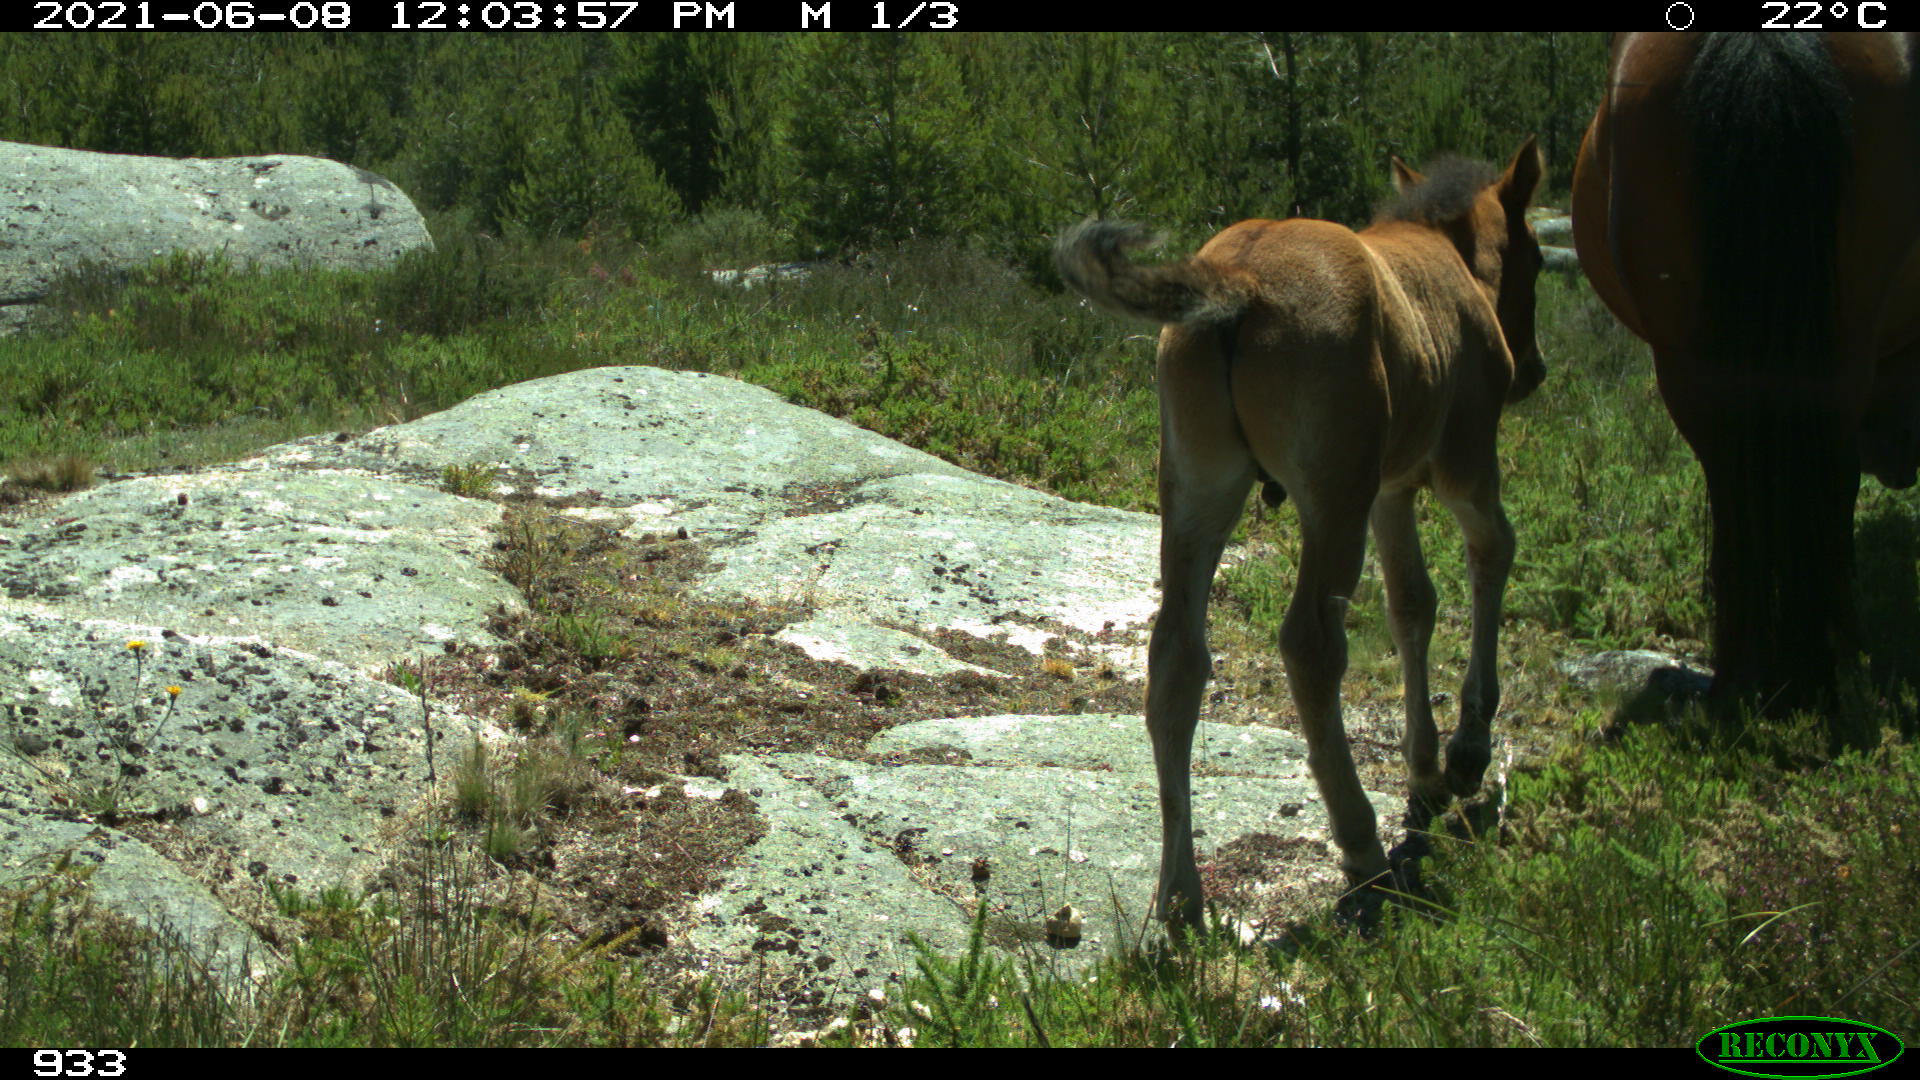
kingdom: Animalia
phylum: Chordata
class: Mammalia
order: Perissodactyla
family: Equidae
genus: Equus
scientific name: Equus caballus
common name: Horse
